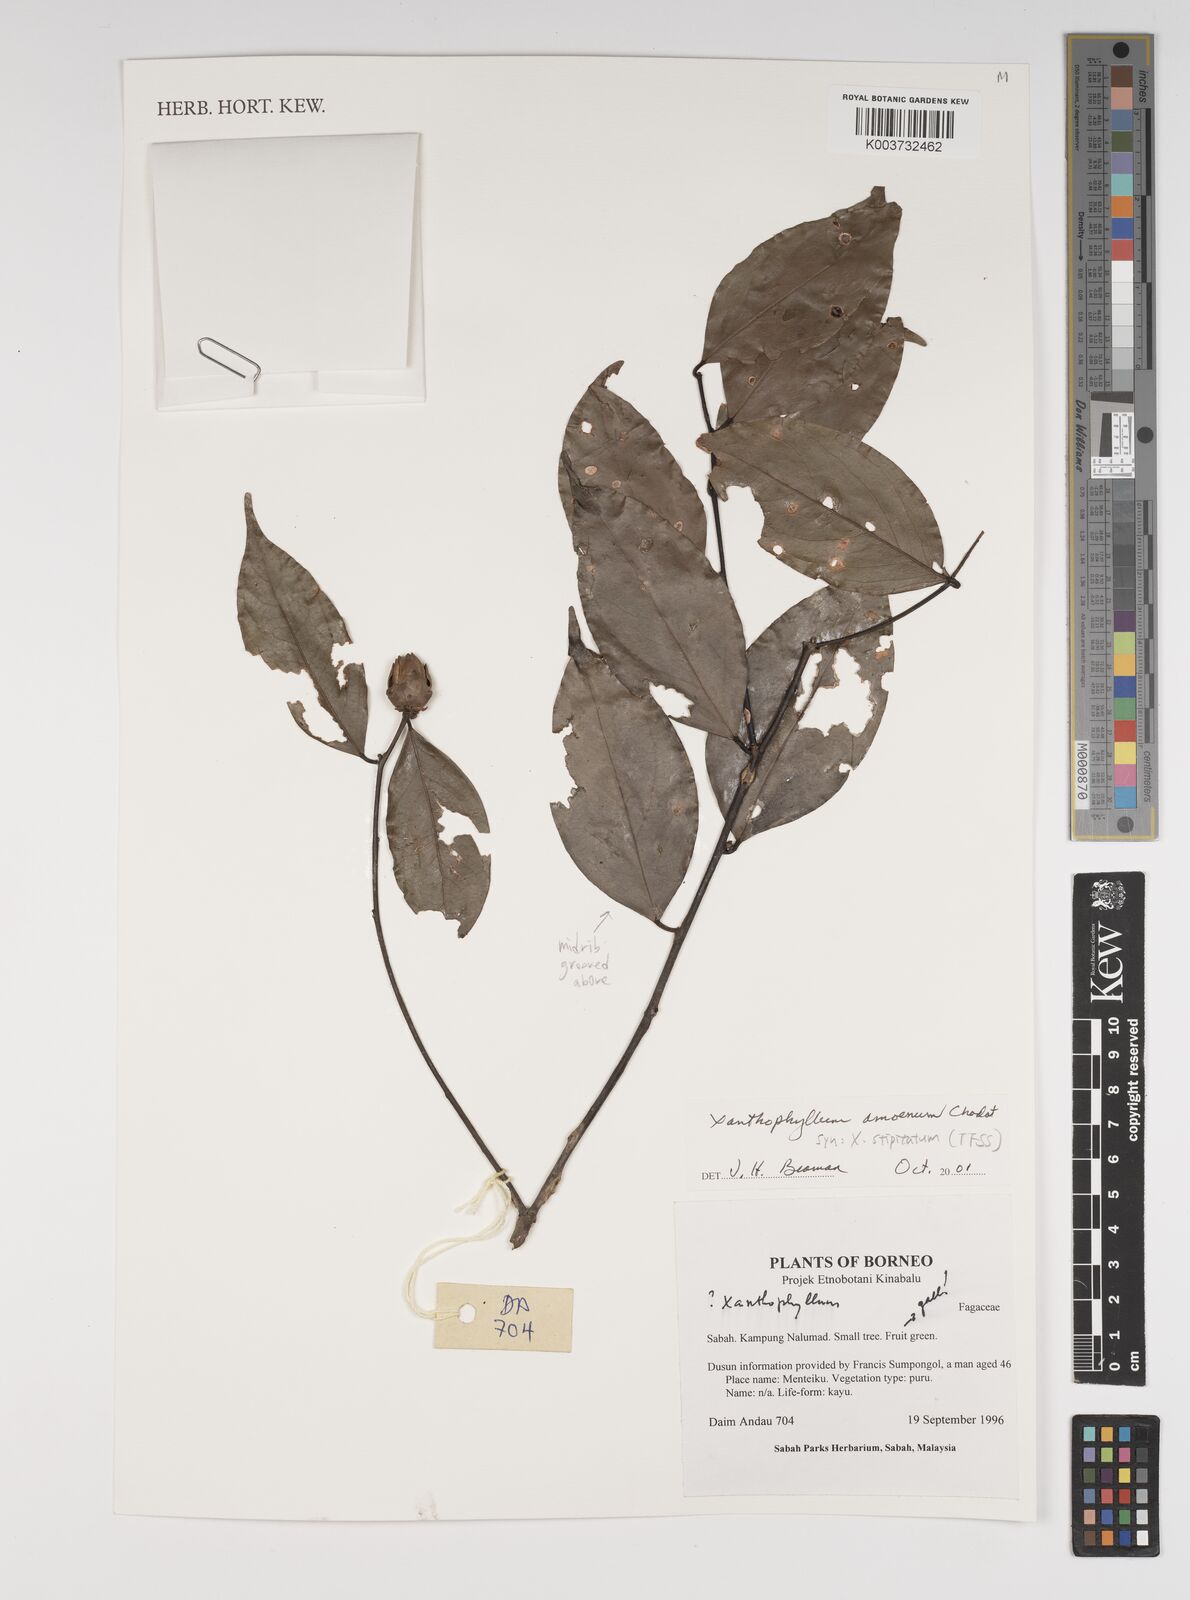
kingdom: Plantae
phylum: Tracheophyta
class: Magnoliopsida
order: Fabales
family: Polygalaceae
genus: Xanthophyllum
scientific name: Xanthophyllum stipitatum
